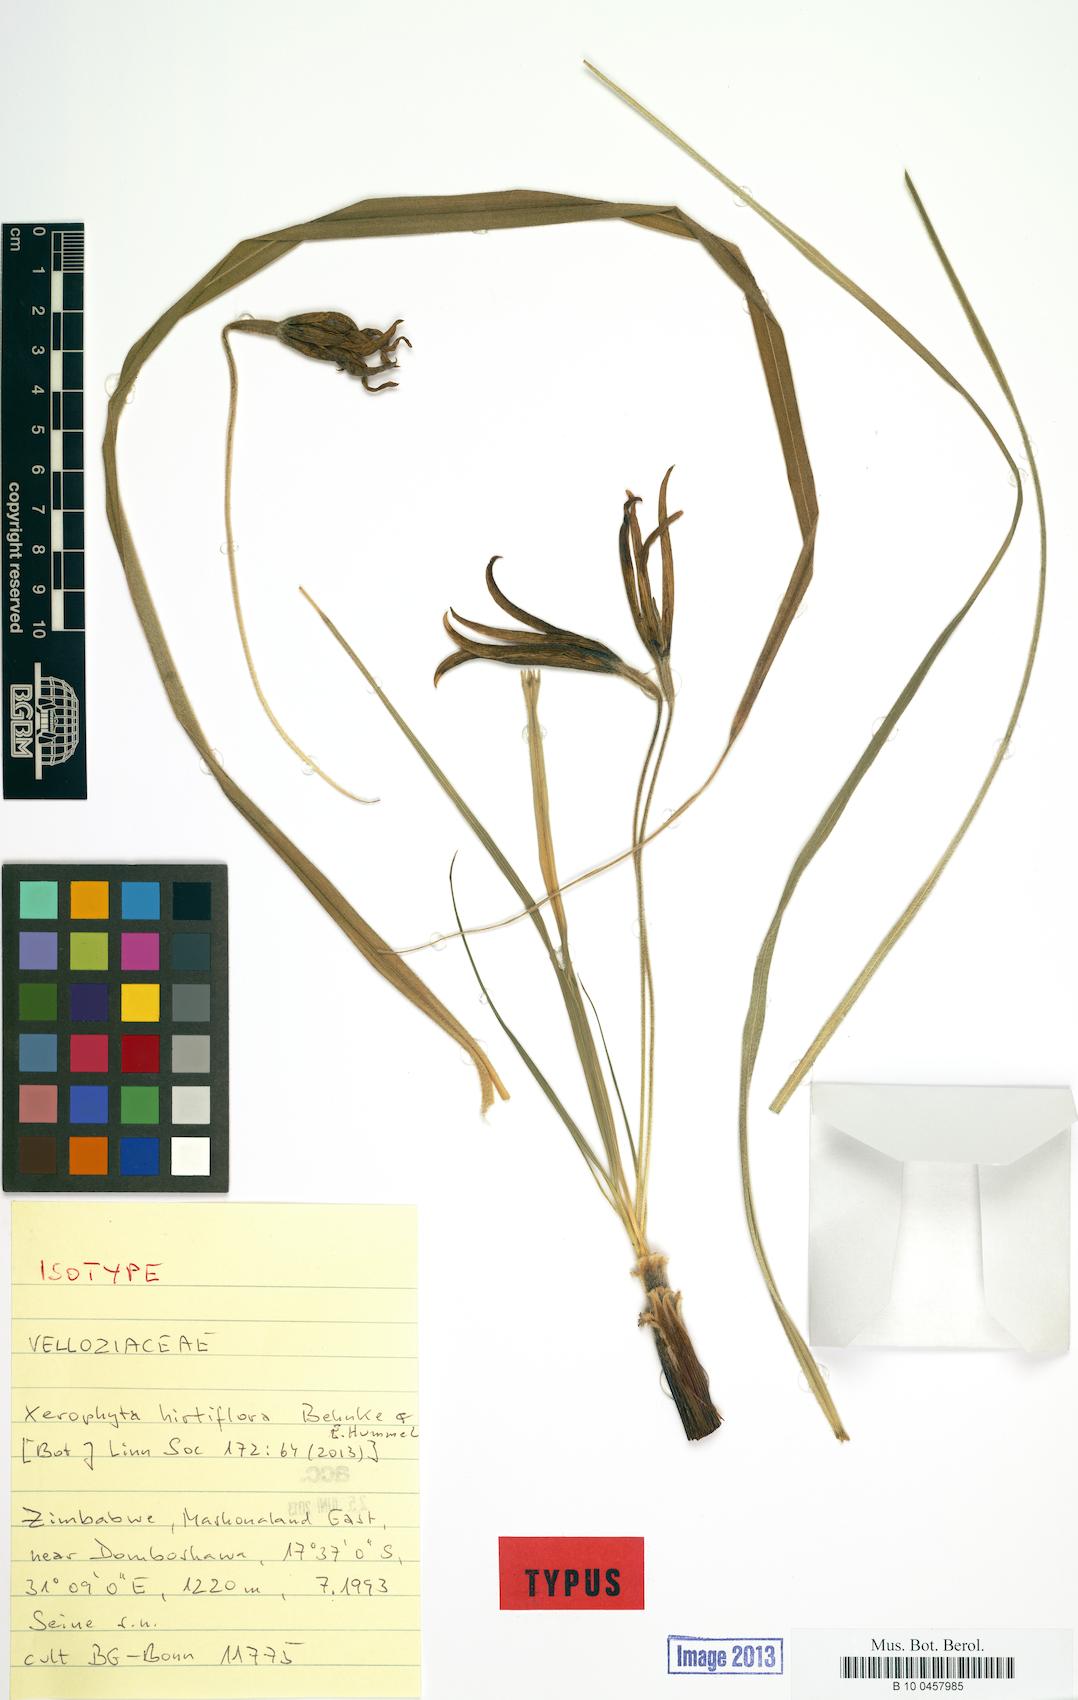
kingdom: Plantae
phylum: Tracheophyta
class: Liliopsida
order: Pandanales
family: Velloziaceae
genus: Xerophyta
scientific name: Xerophyta hirtiflora
